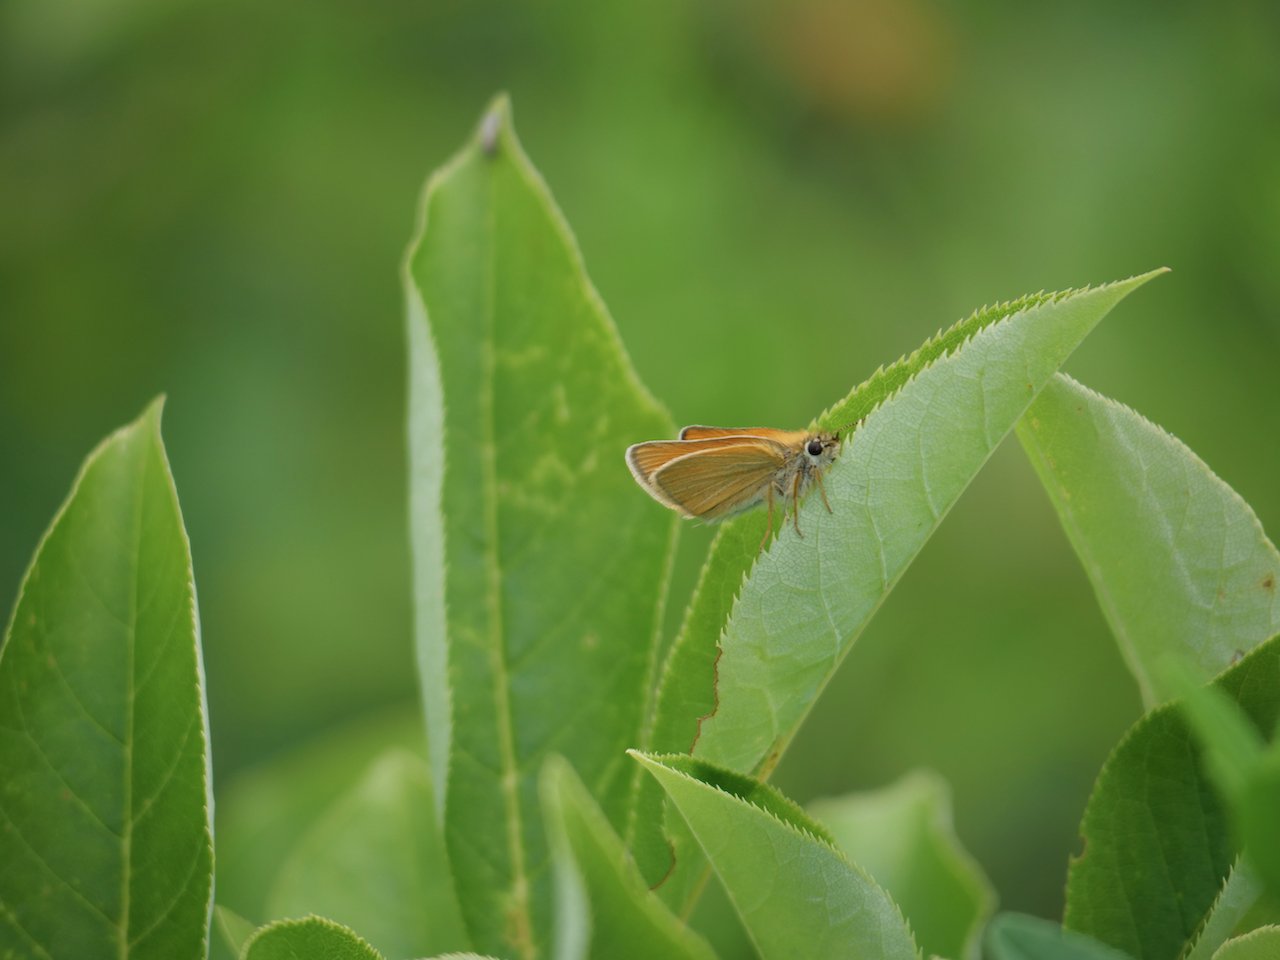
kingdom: Animalia
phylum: Arthropoda
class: Insecta
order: Lepidoptera
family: Hesperiidae
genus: Thymelicus
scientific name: Thymelicus lineola
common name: European Skipper
